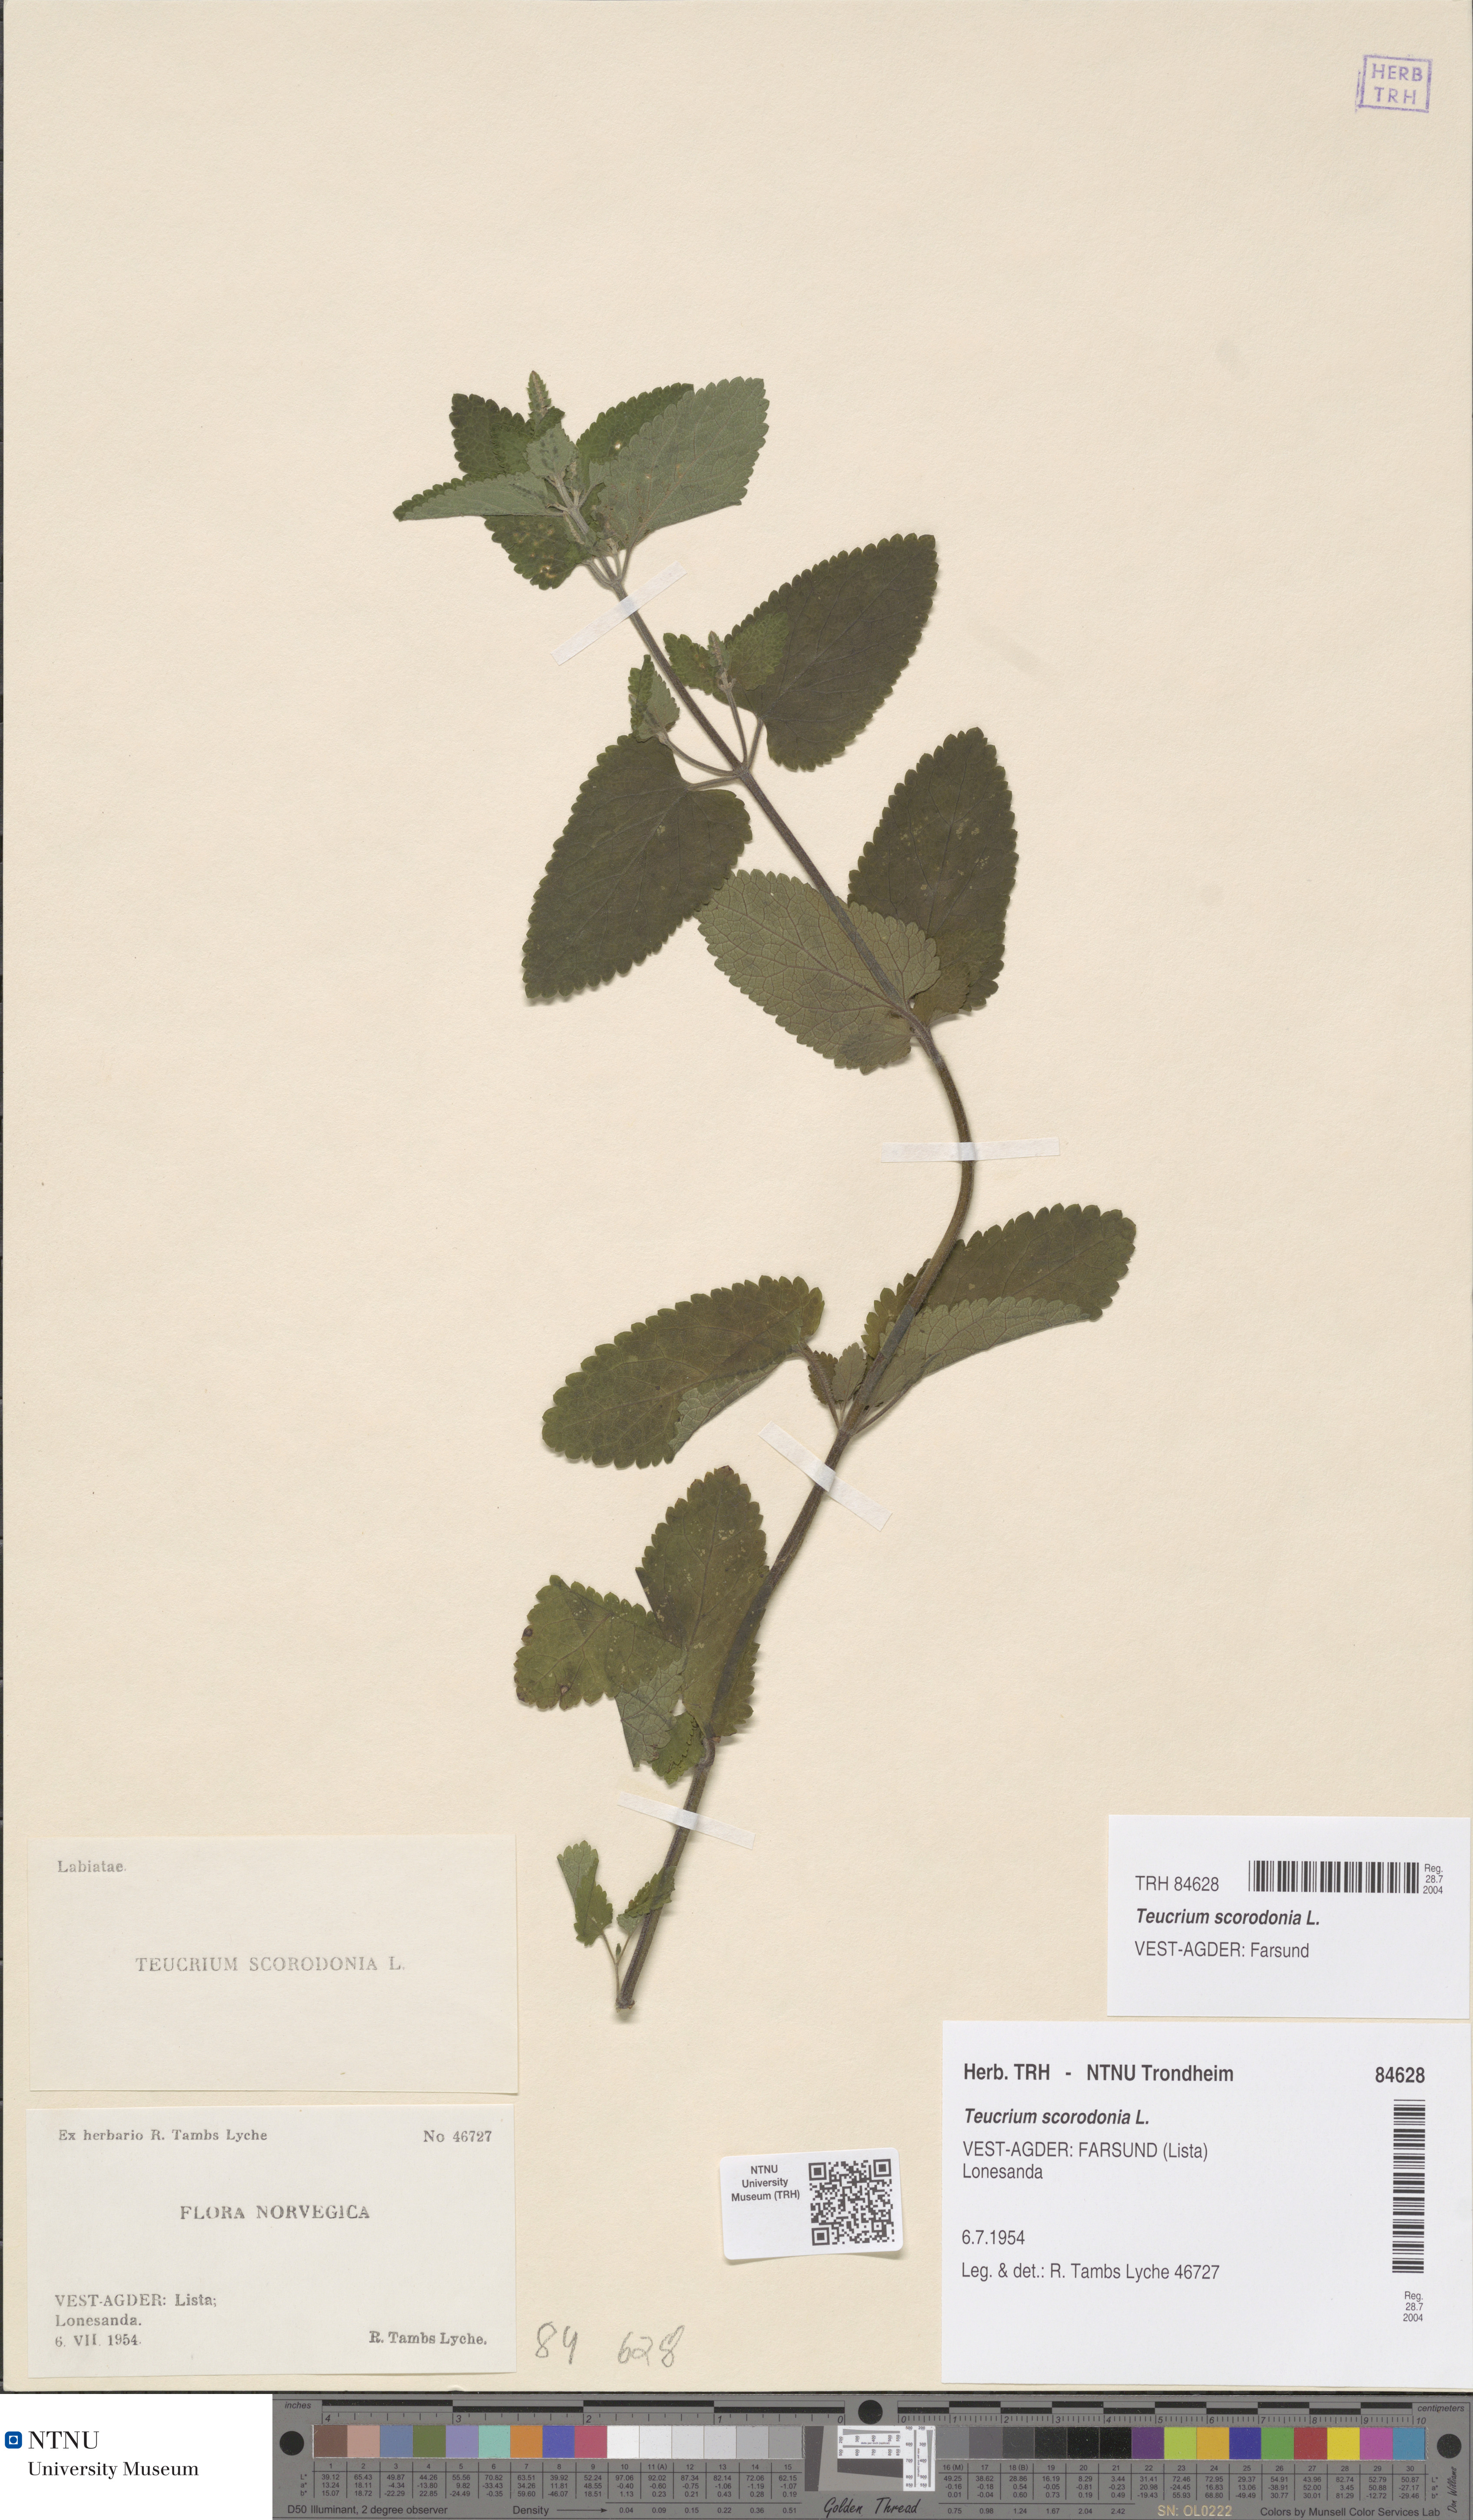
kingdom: Plantae
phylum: Tracheophyta
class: Magnoliopsida
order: Lamiales
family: Lamiaceae
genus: Teucrium
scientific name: Teucrium scorodonia
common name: Woodland germander
